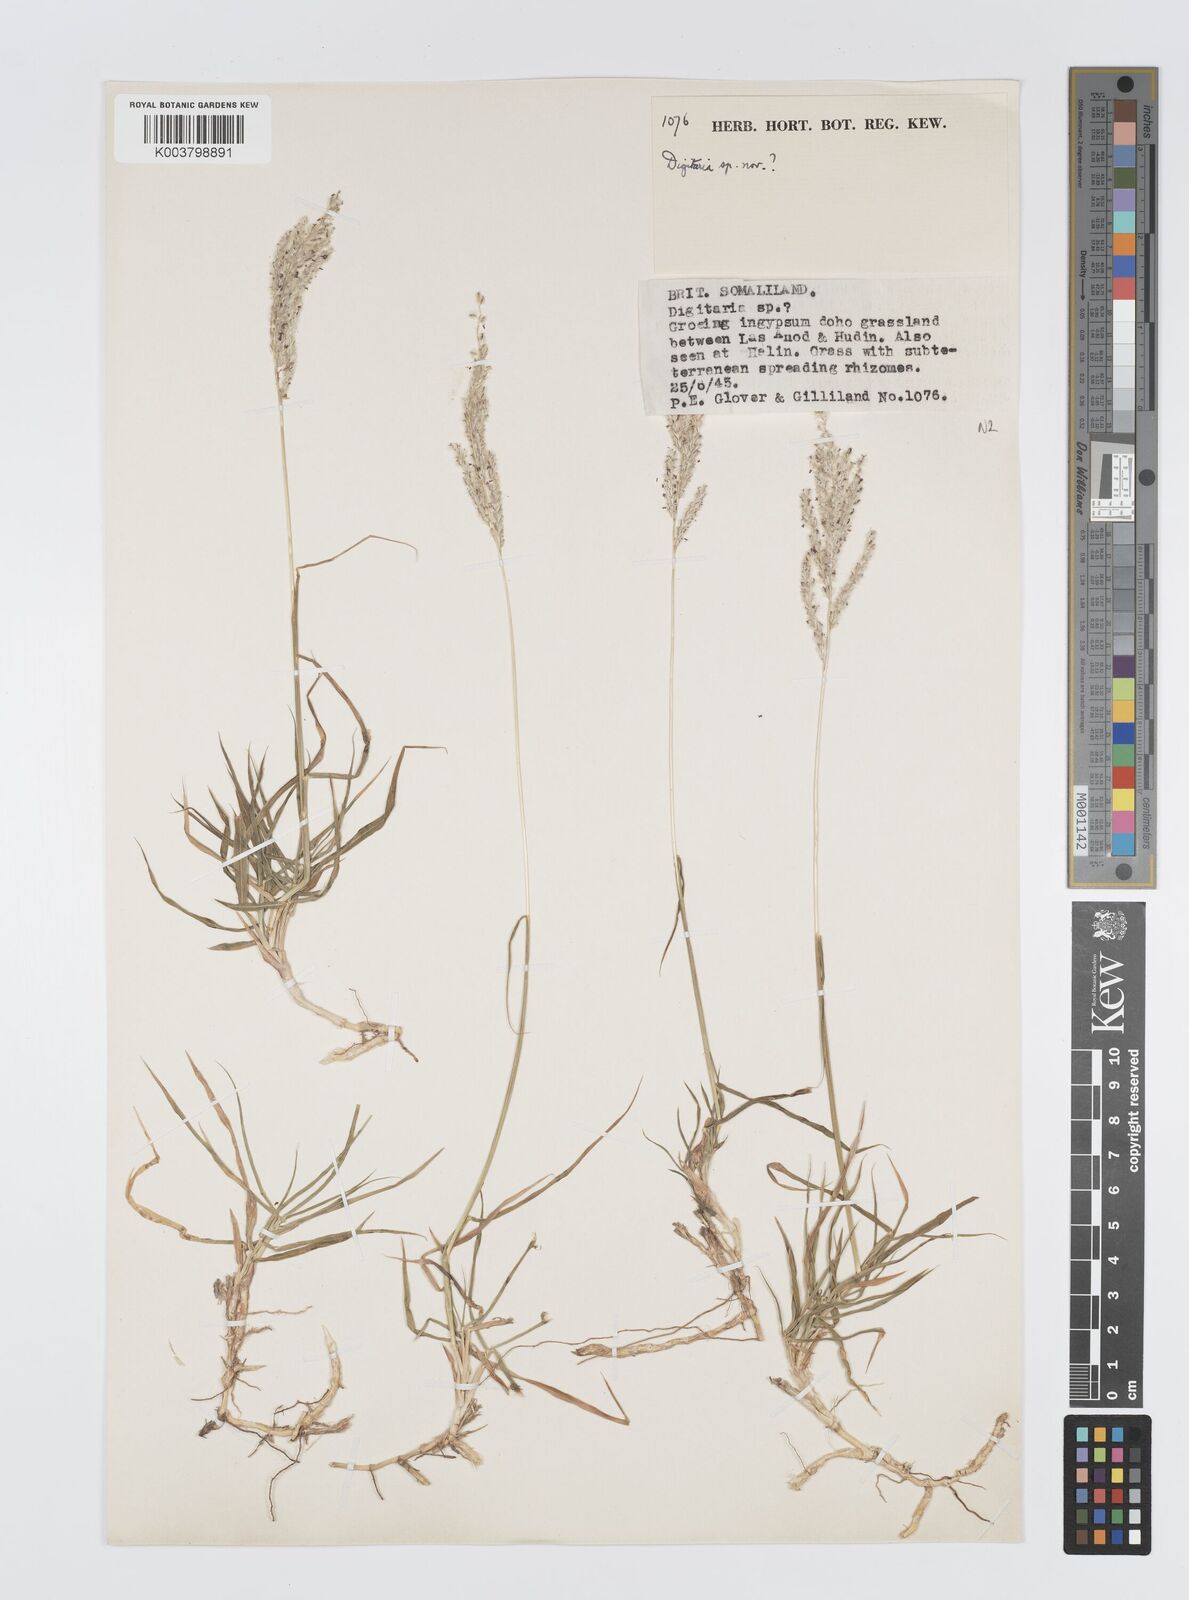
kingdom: Plantae
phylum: Tracheophyta
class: Liliopsida
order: Poales
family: Poaceae
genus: Digitaria
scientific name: Digitaria rivae
